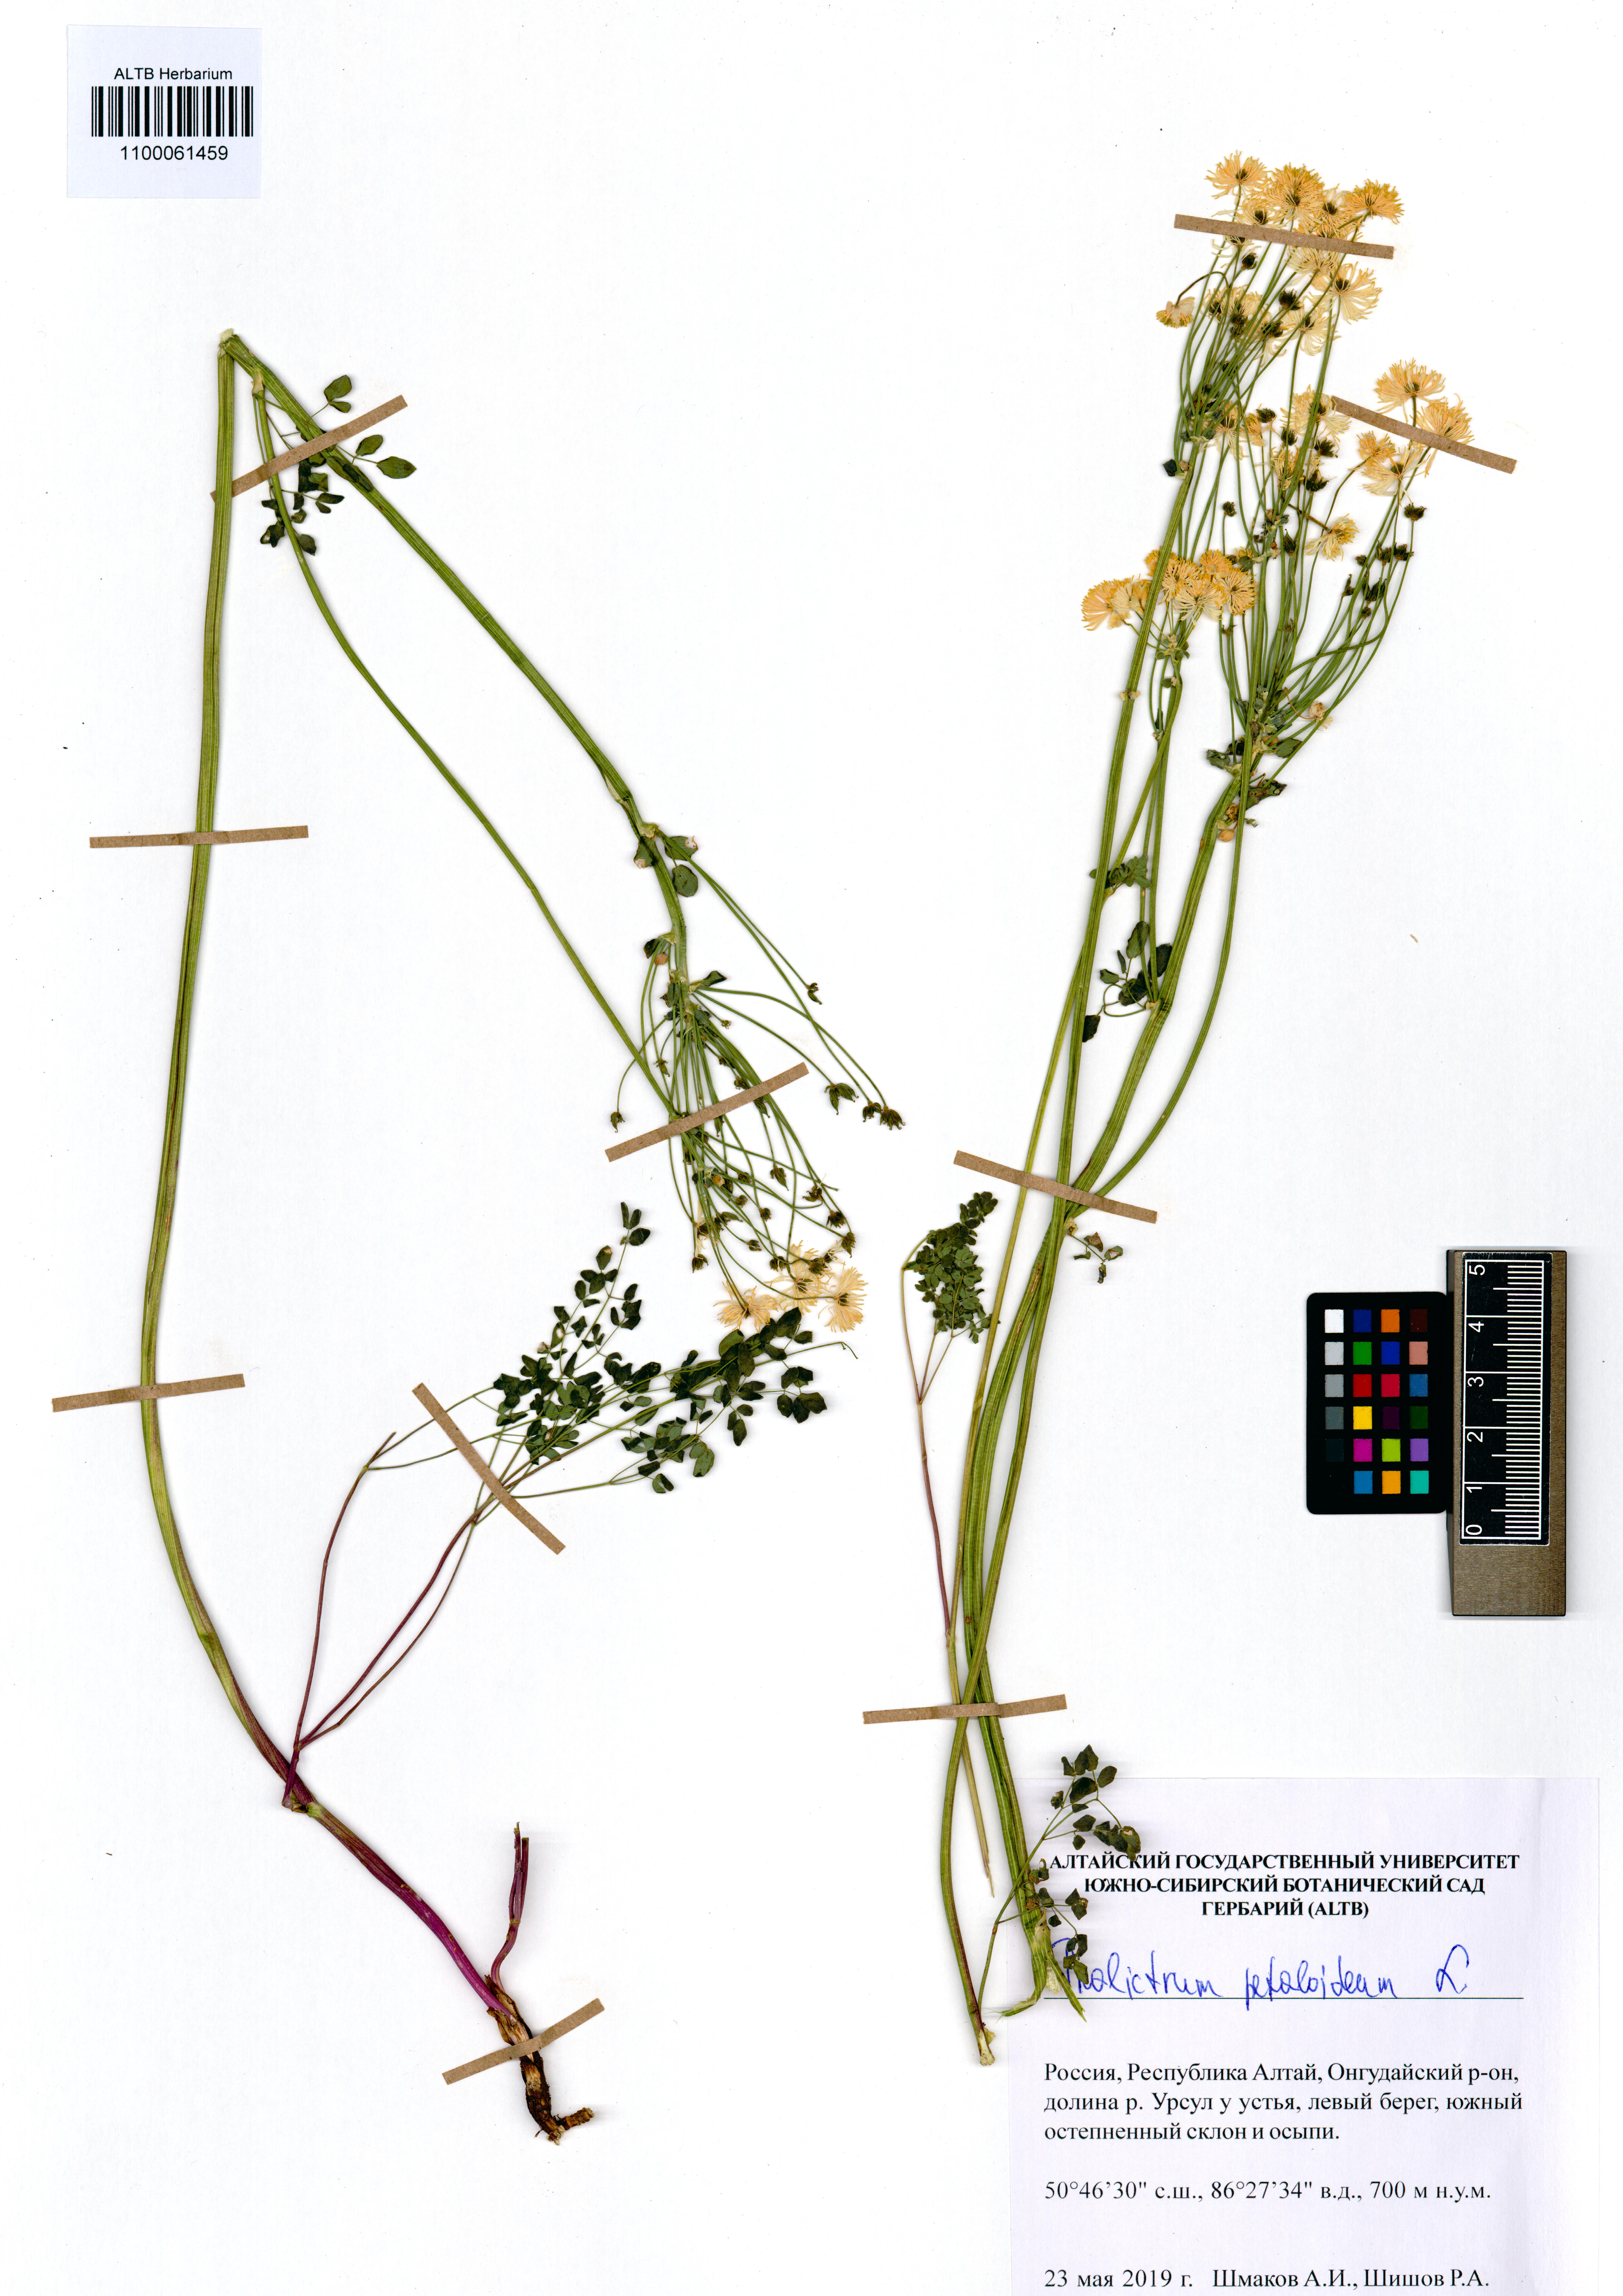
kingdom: Plantae
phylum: Tracheophyta
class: Magnoliopsida
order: Ranunculales
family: Ranunculaceae
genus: Thalictrum
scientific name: Thalictrum petaloideum
